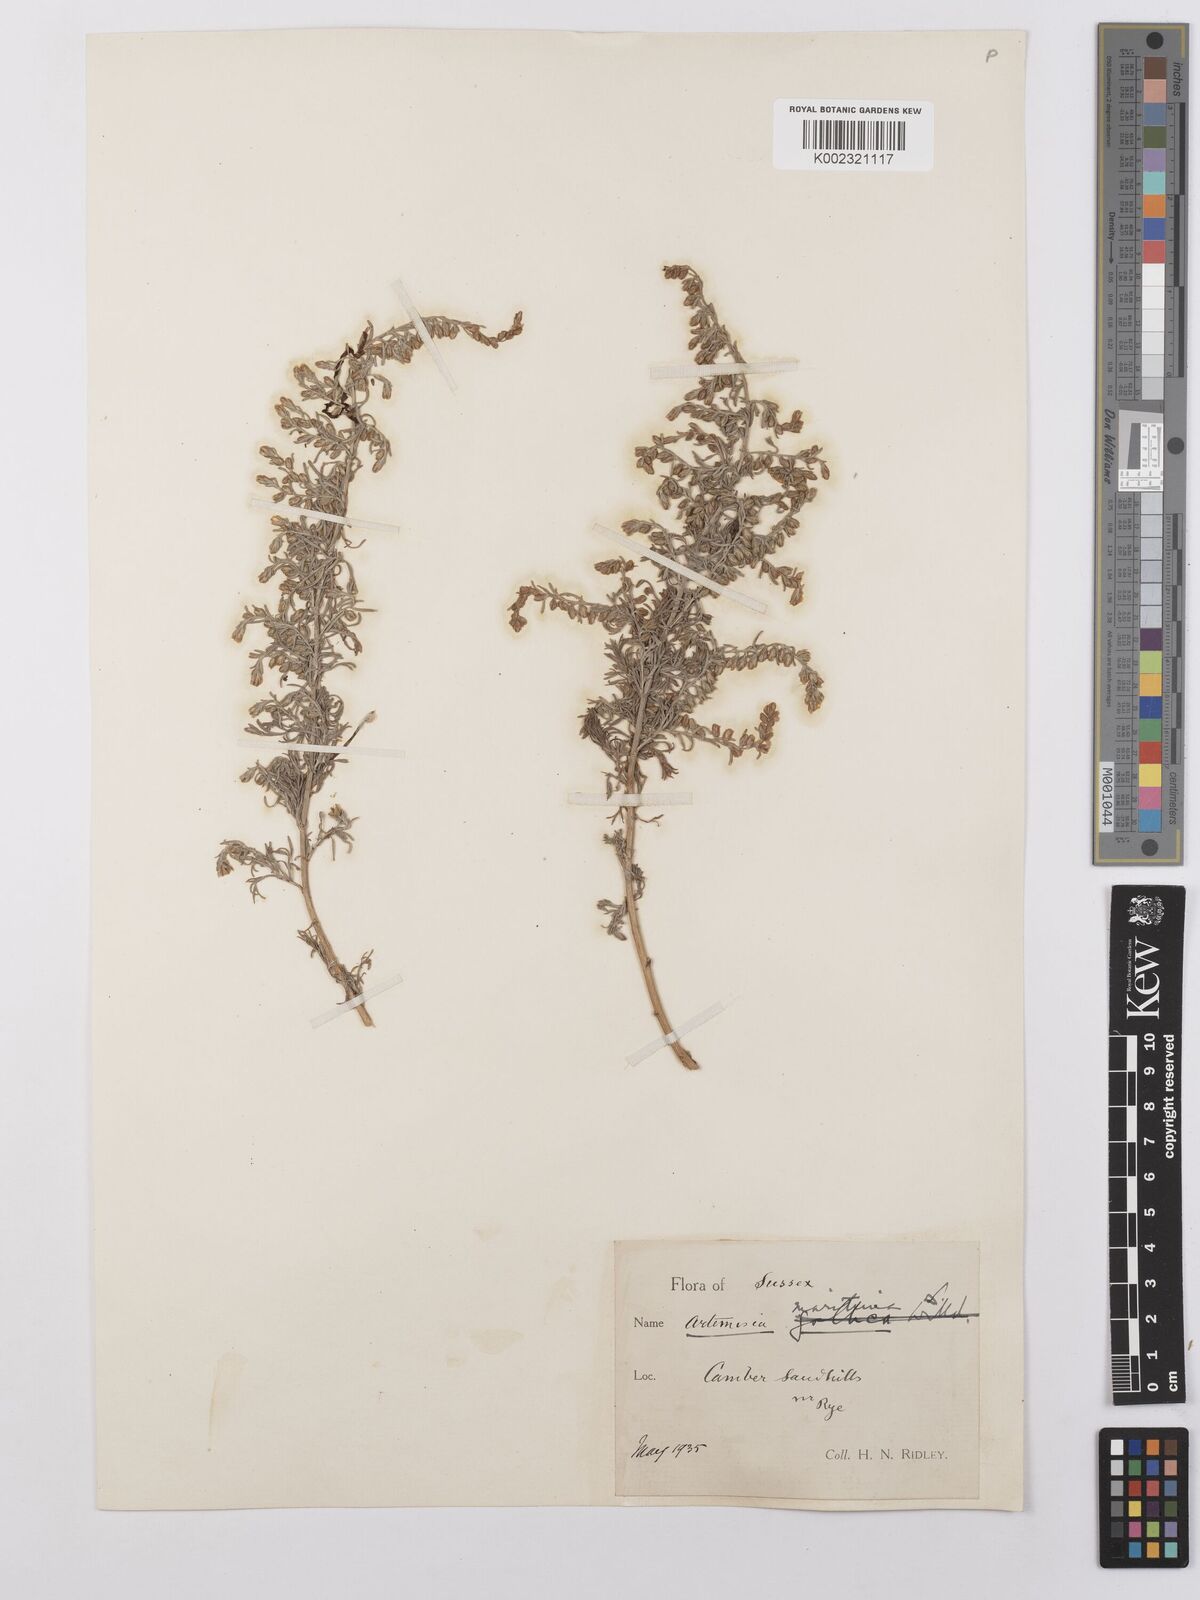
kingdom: Plantae
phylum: Tracheophyta
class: Magnoliopsida
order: Asterales
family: Asteraceae
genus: Artemisia
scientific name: Artemisia maritima
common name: Wormseed
